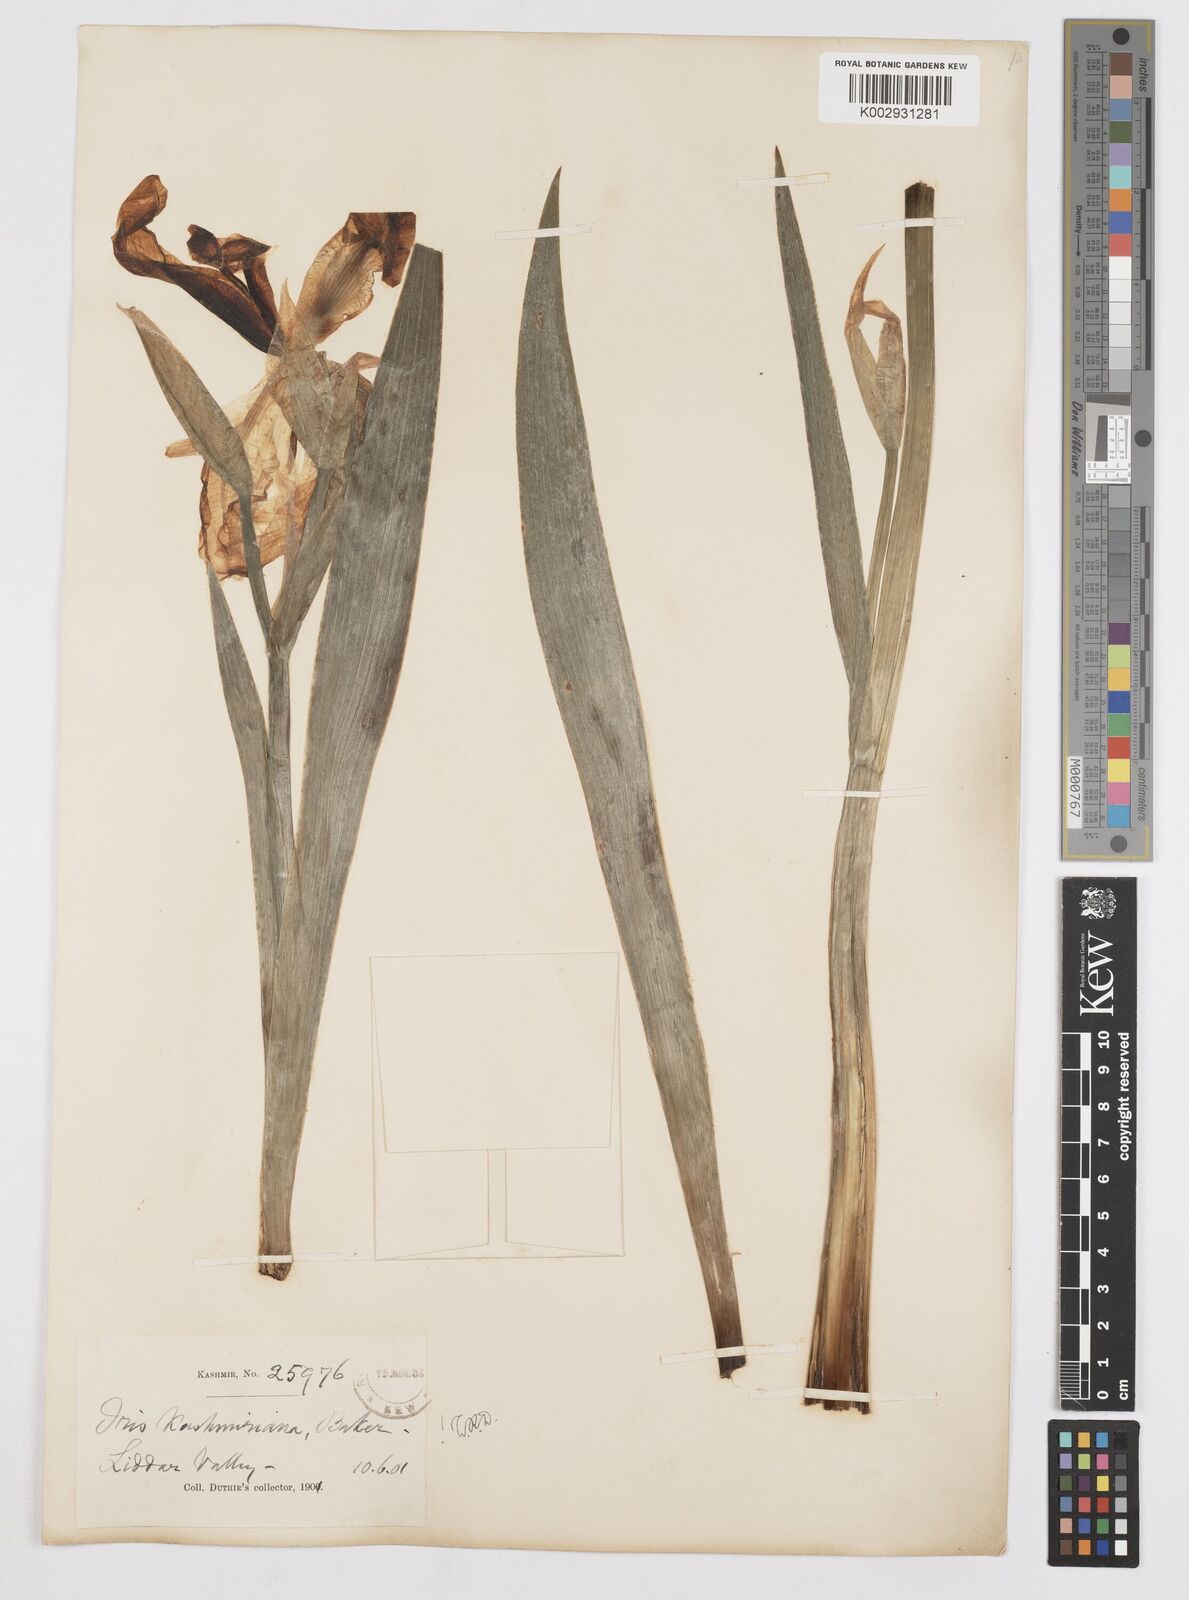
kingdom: Plantae
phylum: Tracheophyta
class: Liliopsida
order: Asparagales
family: Iridaceae
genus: Iris
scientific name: Iris kashmiriana
